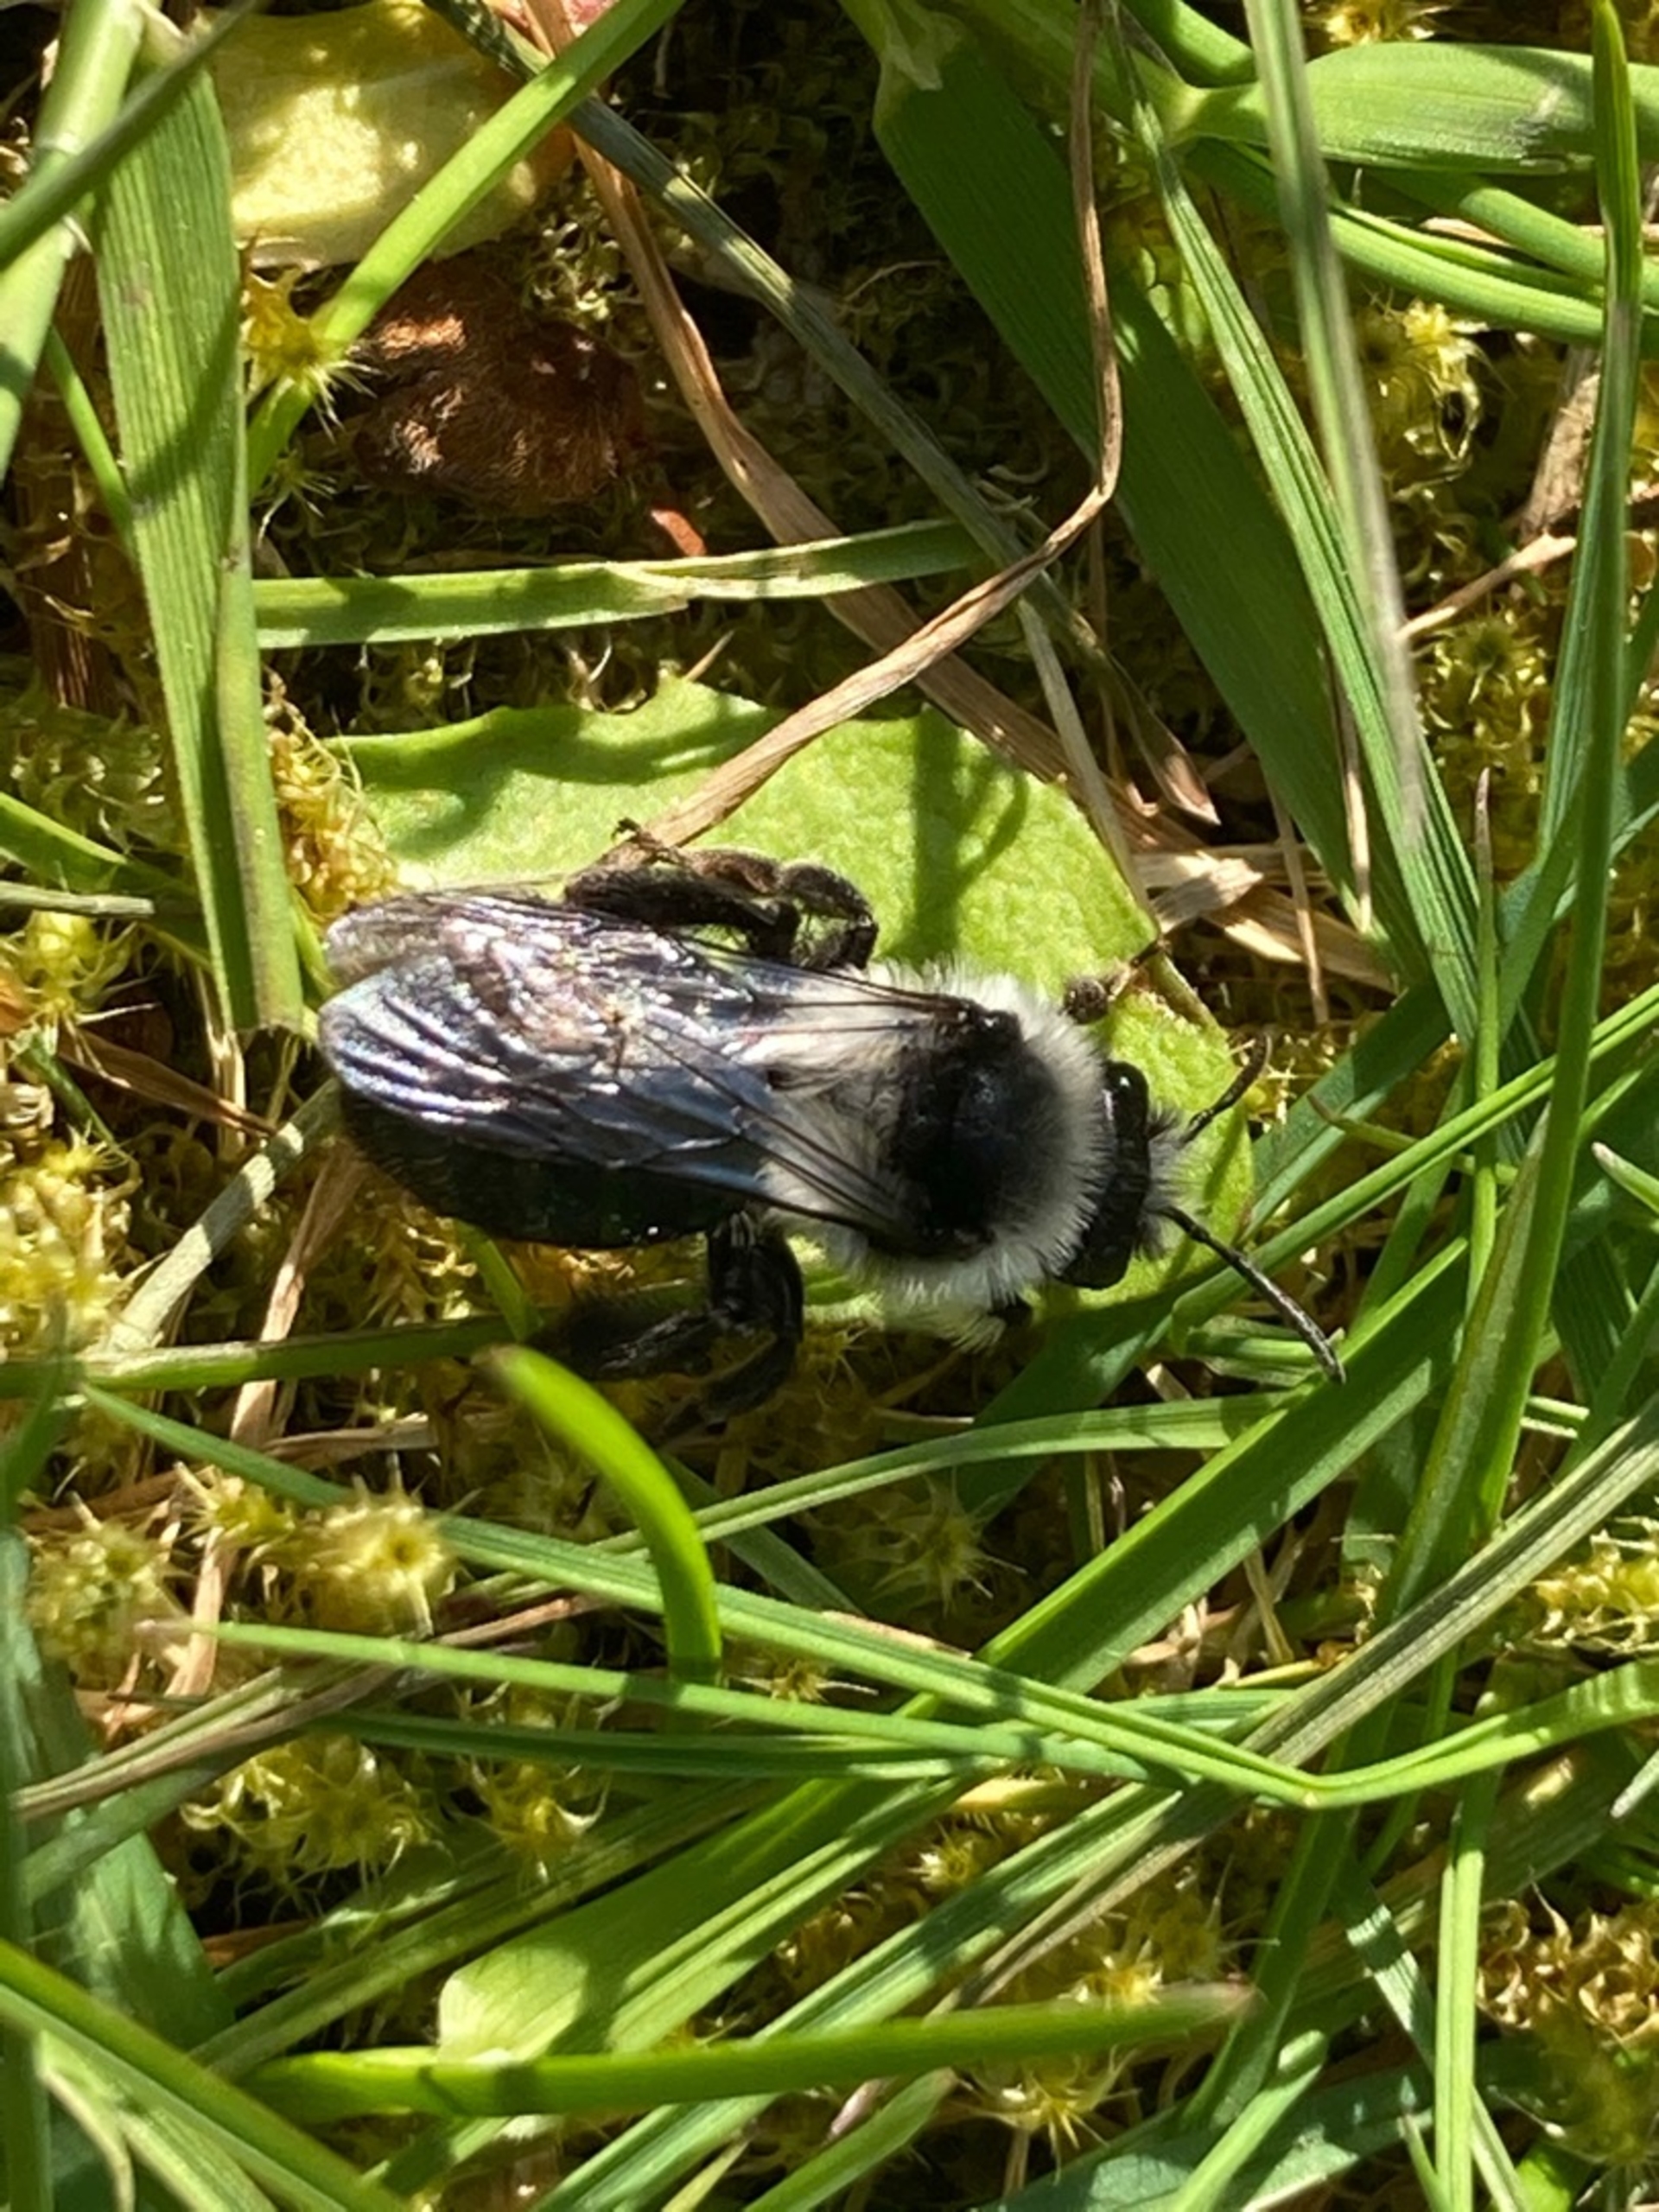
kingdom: Animalia
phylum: Arthropoda
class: Insecta
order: Hymenoptera
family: Andrenidae
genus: Andrena
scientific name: Andrena cineraria
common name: Sorthvid jordbi
